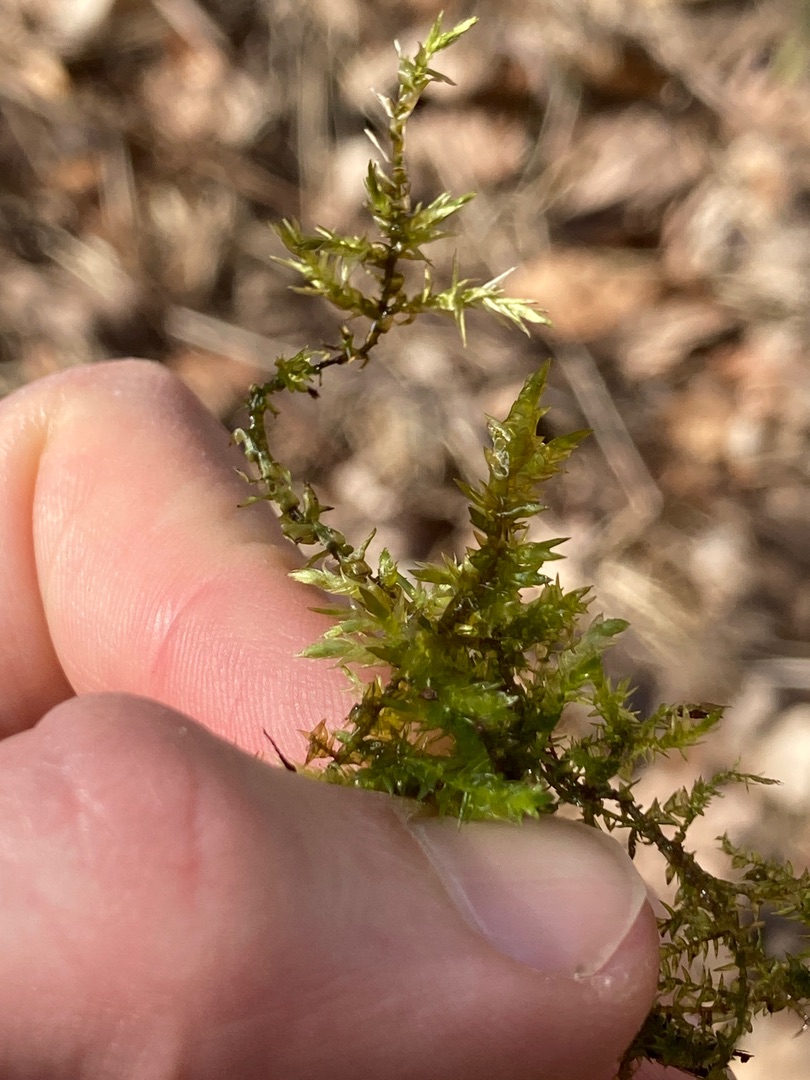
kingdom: Plantae
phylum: Bryophyta
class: Bryopsida
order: Hypnales
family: Calliergonaceae
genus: Calliergon
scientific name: Calliergon cordifolium
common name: Almindelig skebladsmos
